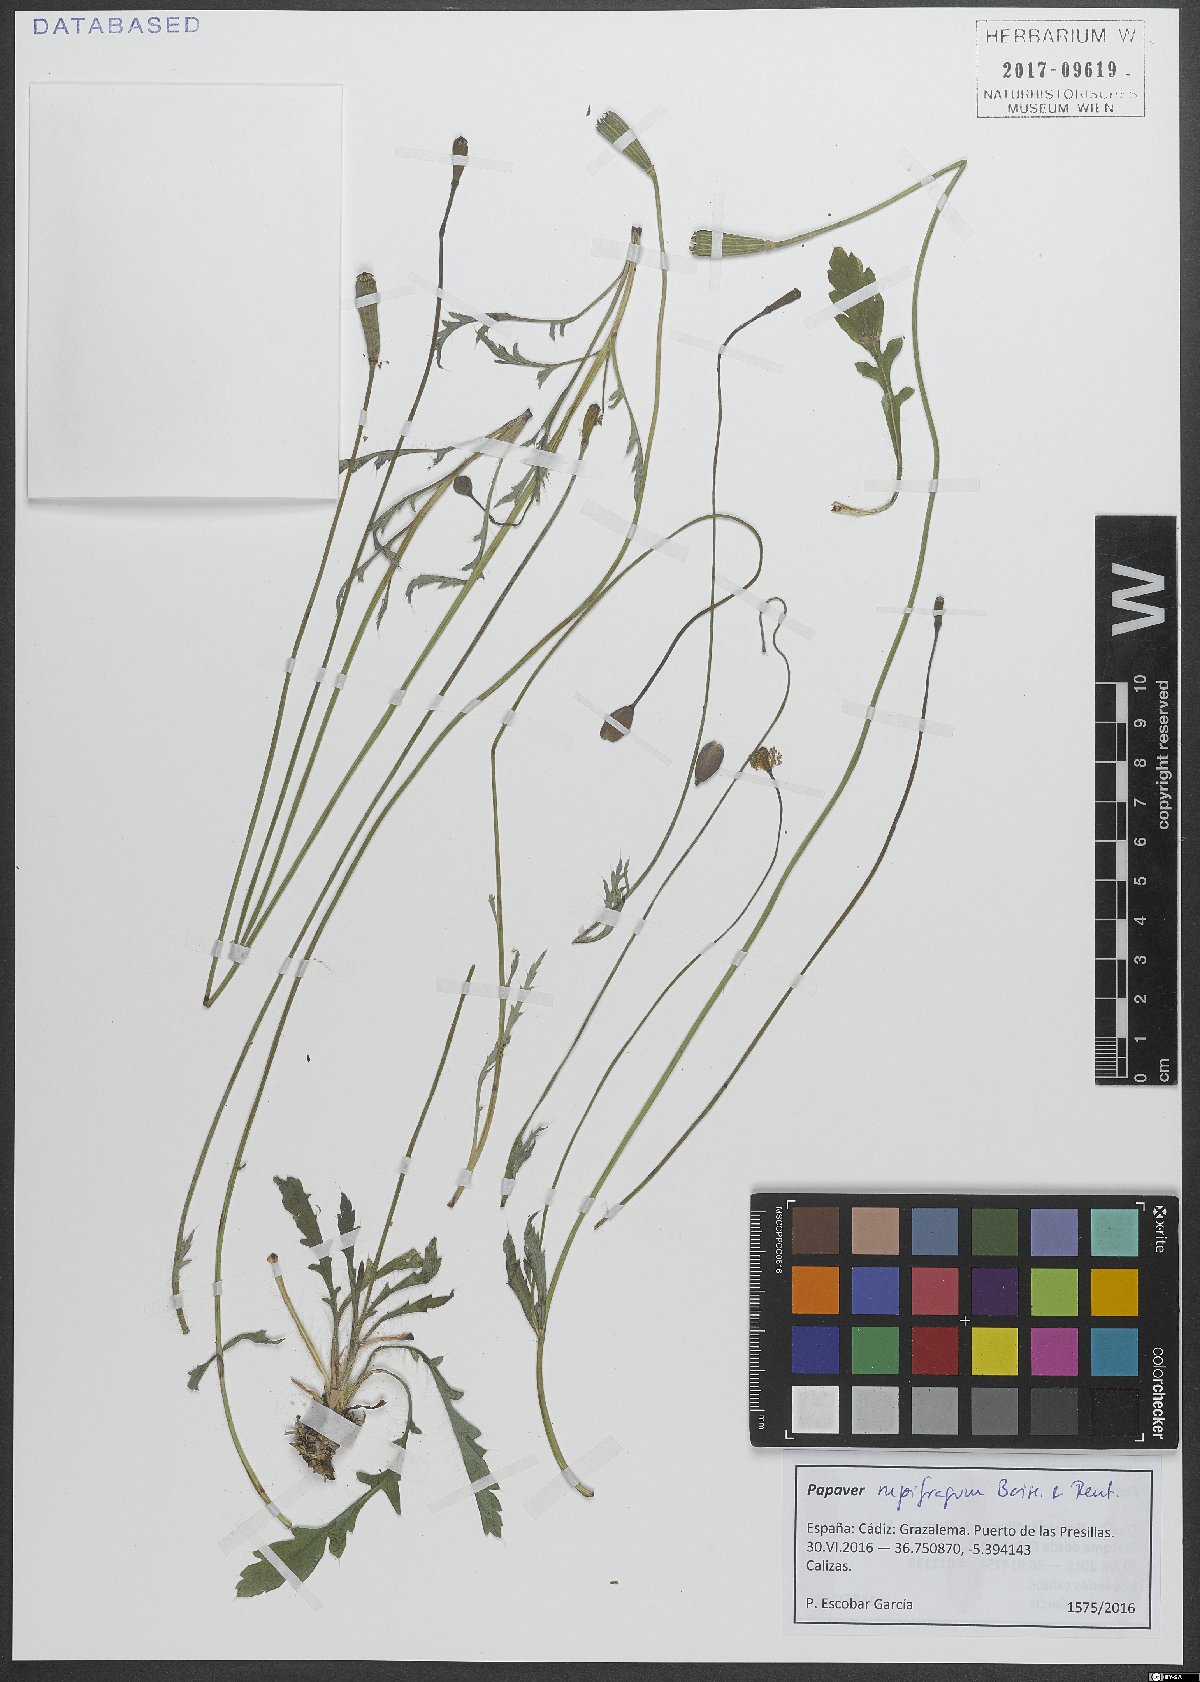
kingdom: Plantae
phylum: Tracheophyta
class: Magnoliopsida
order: Ranunculales
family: Papaveraceae
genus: Papaver
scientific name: Papaver rupifragum
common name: Spanish poppy
